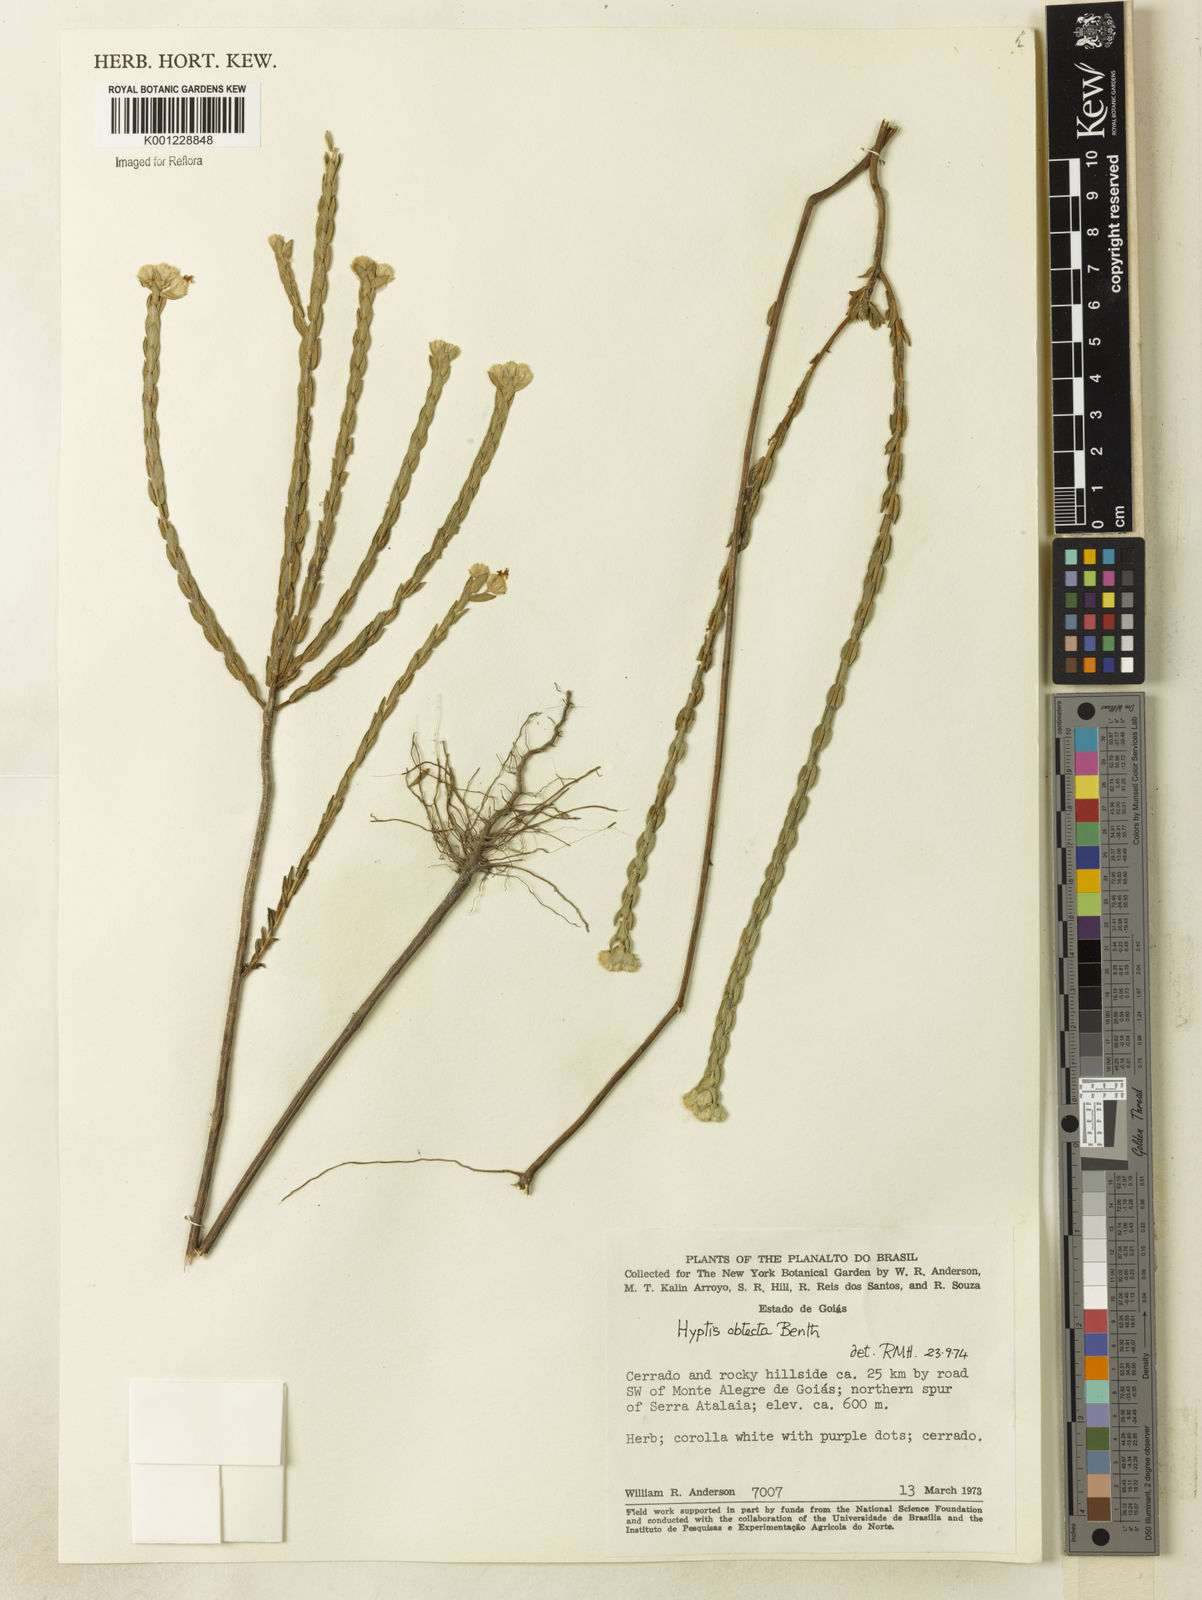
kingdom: Plantae
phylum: Tracheophyta
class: Magnoliopsida
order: Lamiales
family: Lamiaceae
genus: Hyptis
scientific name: Hyptis obtecta
